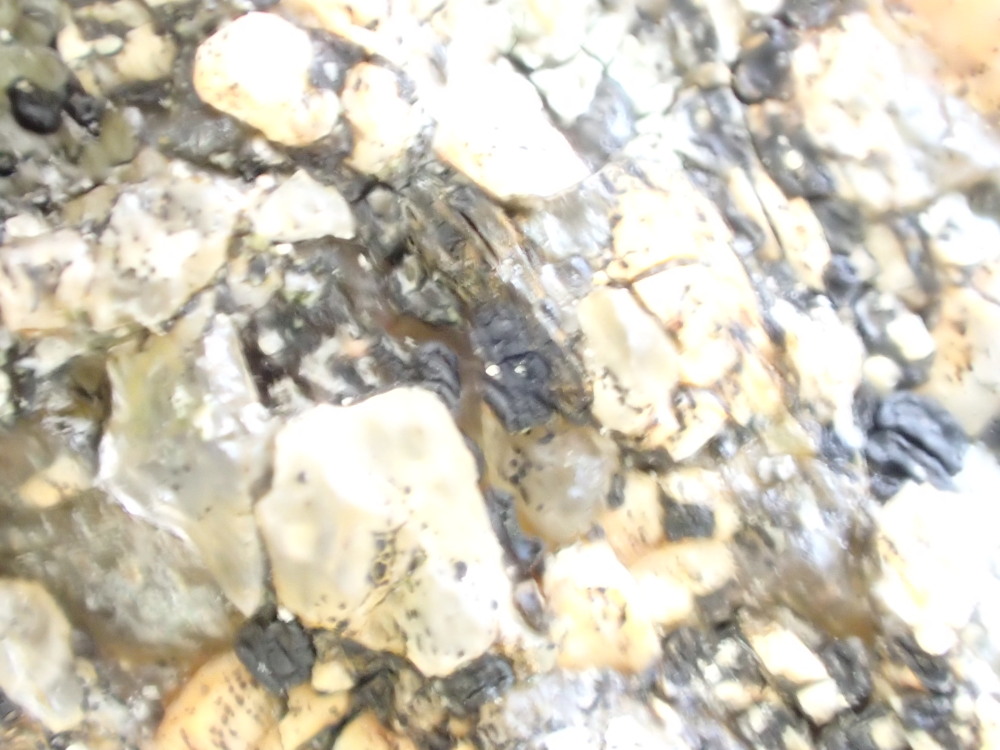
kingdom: Fungi
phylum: Ascomycota
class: Lecanoromycetes
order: Acarosporales
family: Acarosporaceae
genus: Acarospora
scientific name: Acarospora privigna
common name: sort foldekantlav
